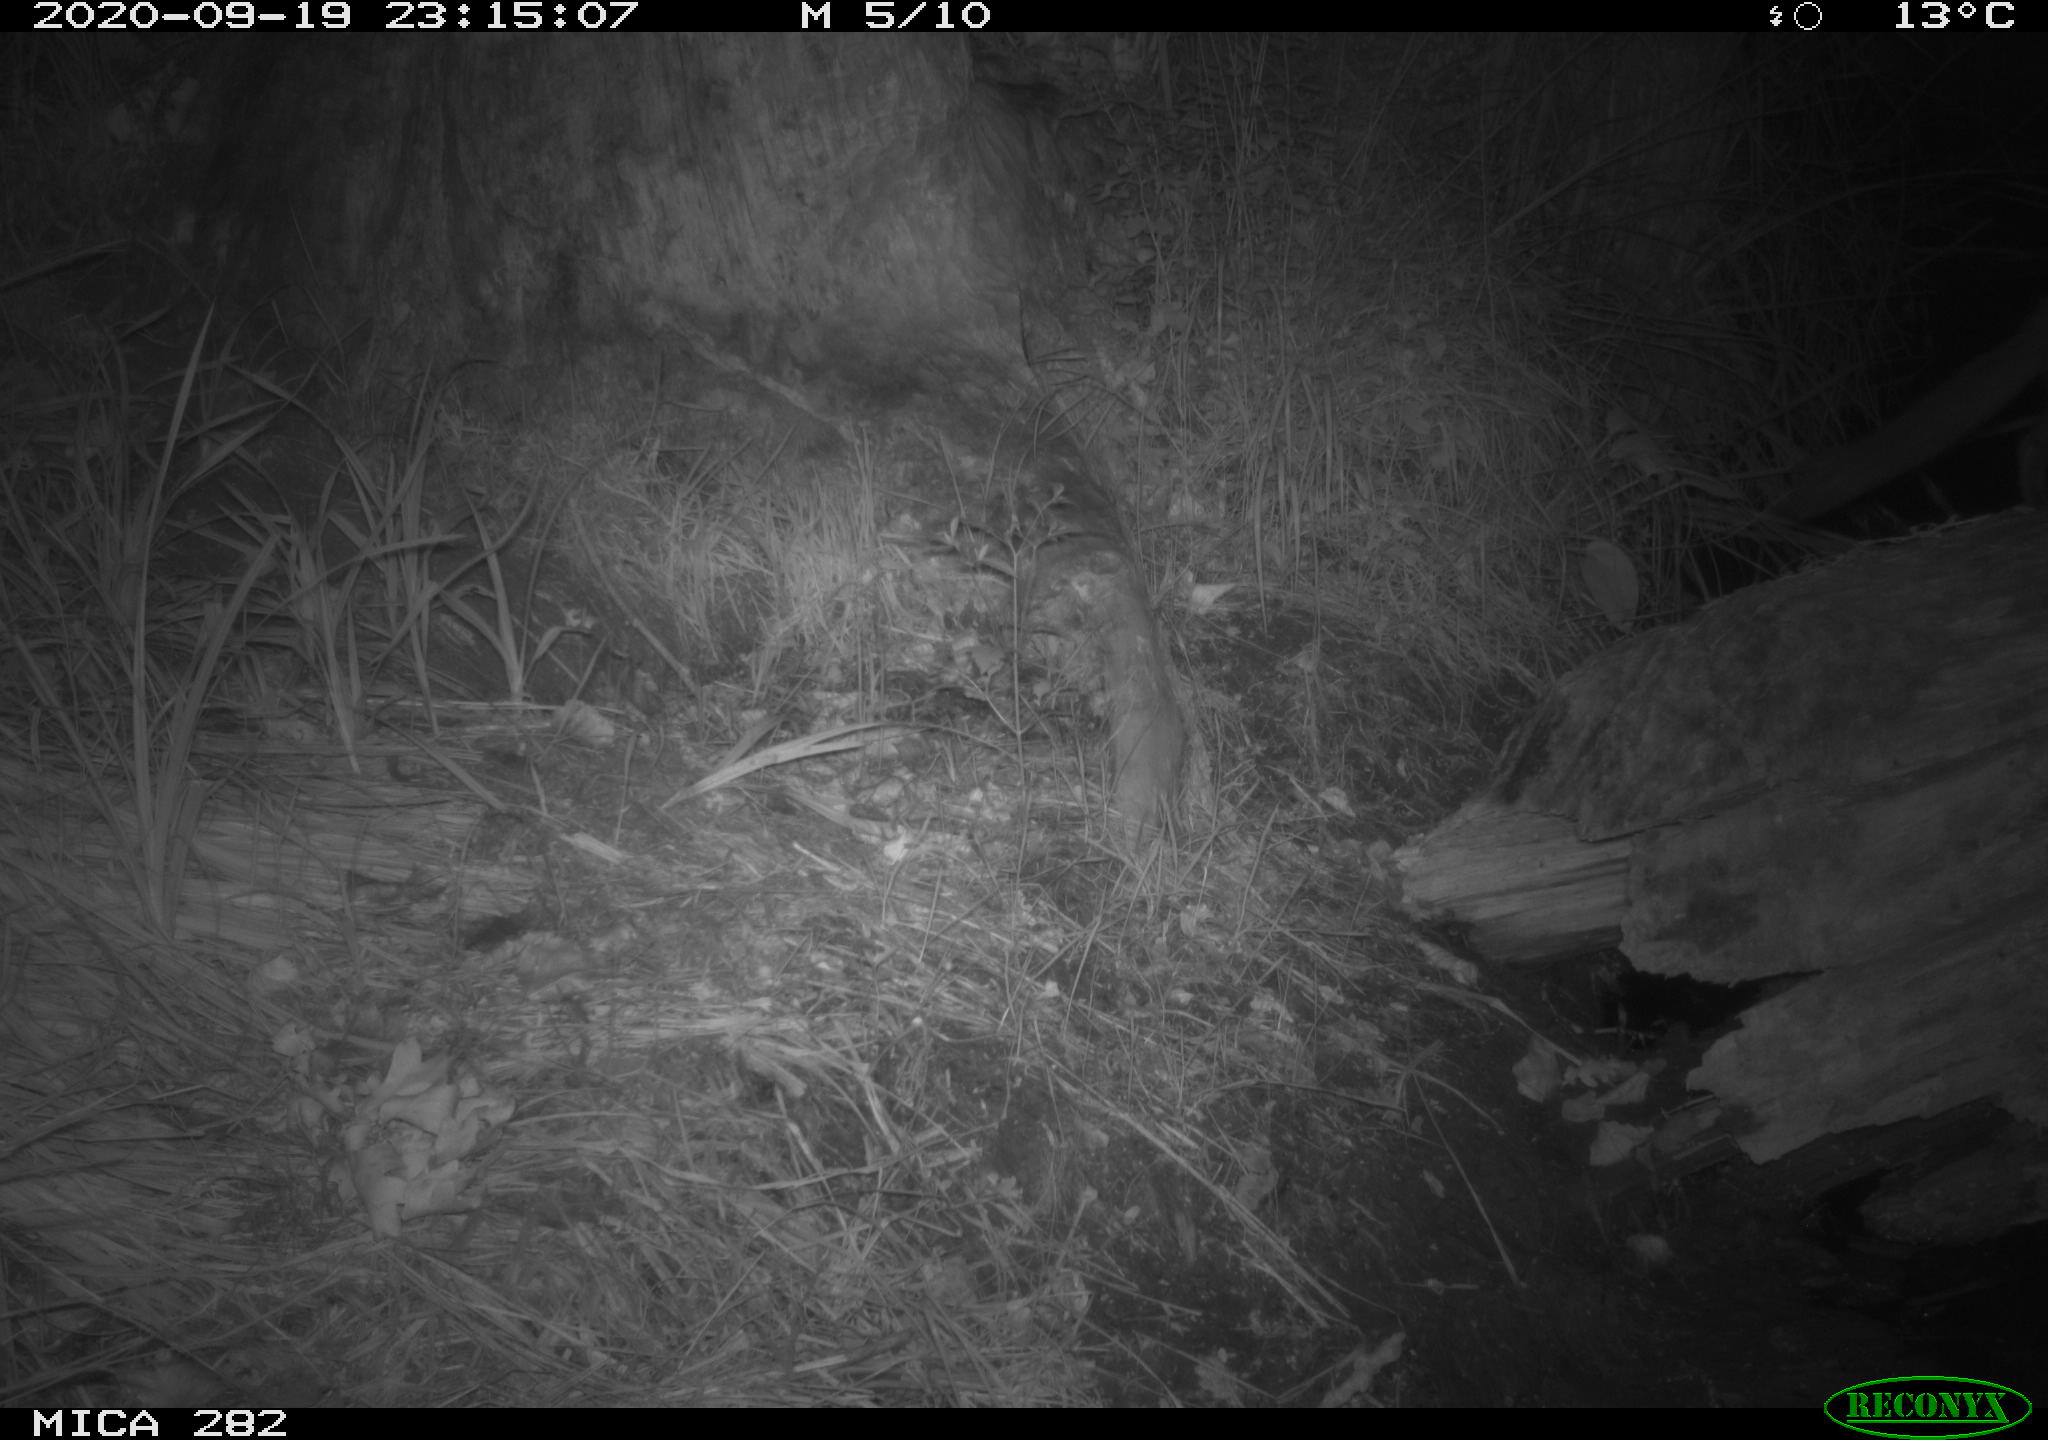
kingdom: Animalia
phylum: Chordata
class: Mammalia
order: Carnivora
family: Mustelidae
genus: Martes
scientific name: Martes foina
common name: Beech marten
